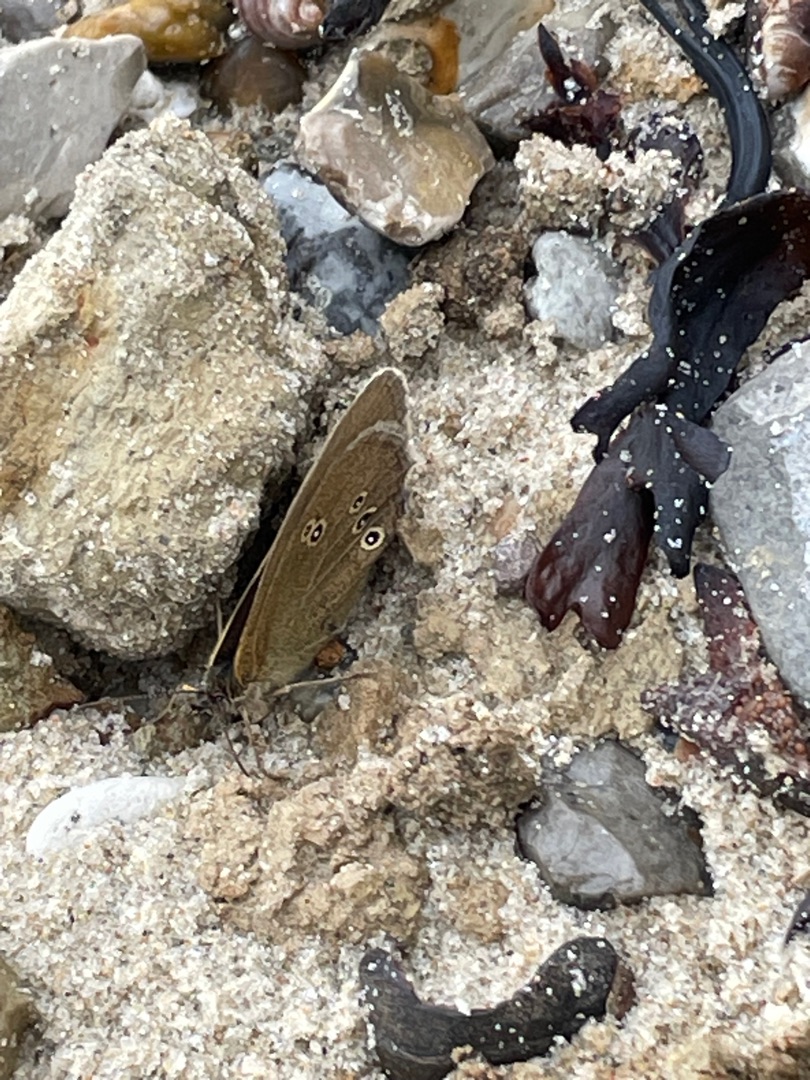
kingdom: Animalia
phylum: Arthropoda
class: Insecta
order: Lepidoptera
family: Nymphalidae
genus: Aphantopus
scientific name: Aphantopus hyperantus
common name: Engrandøje
